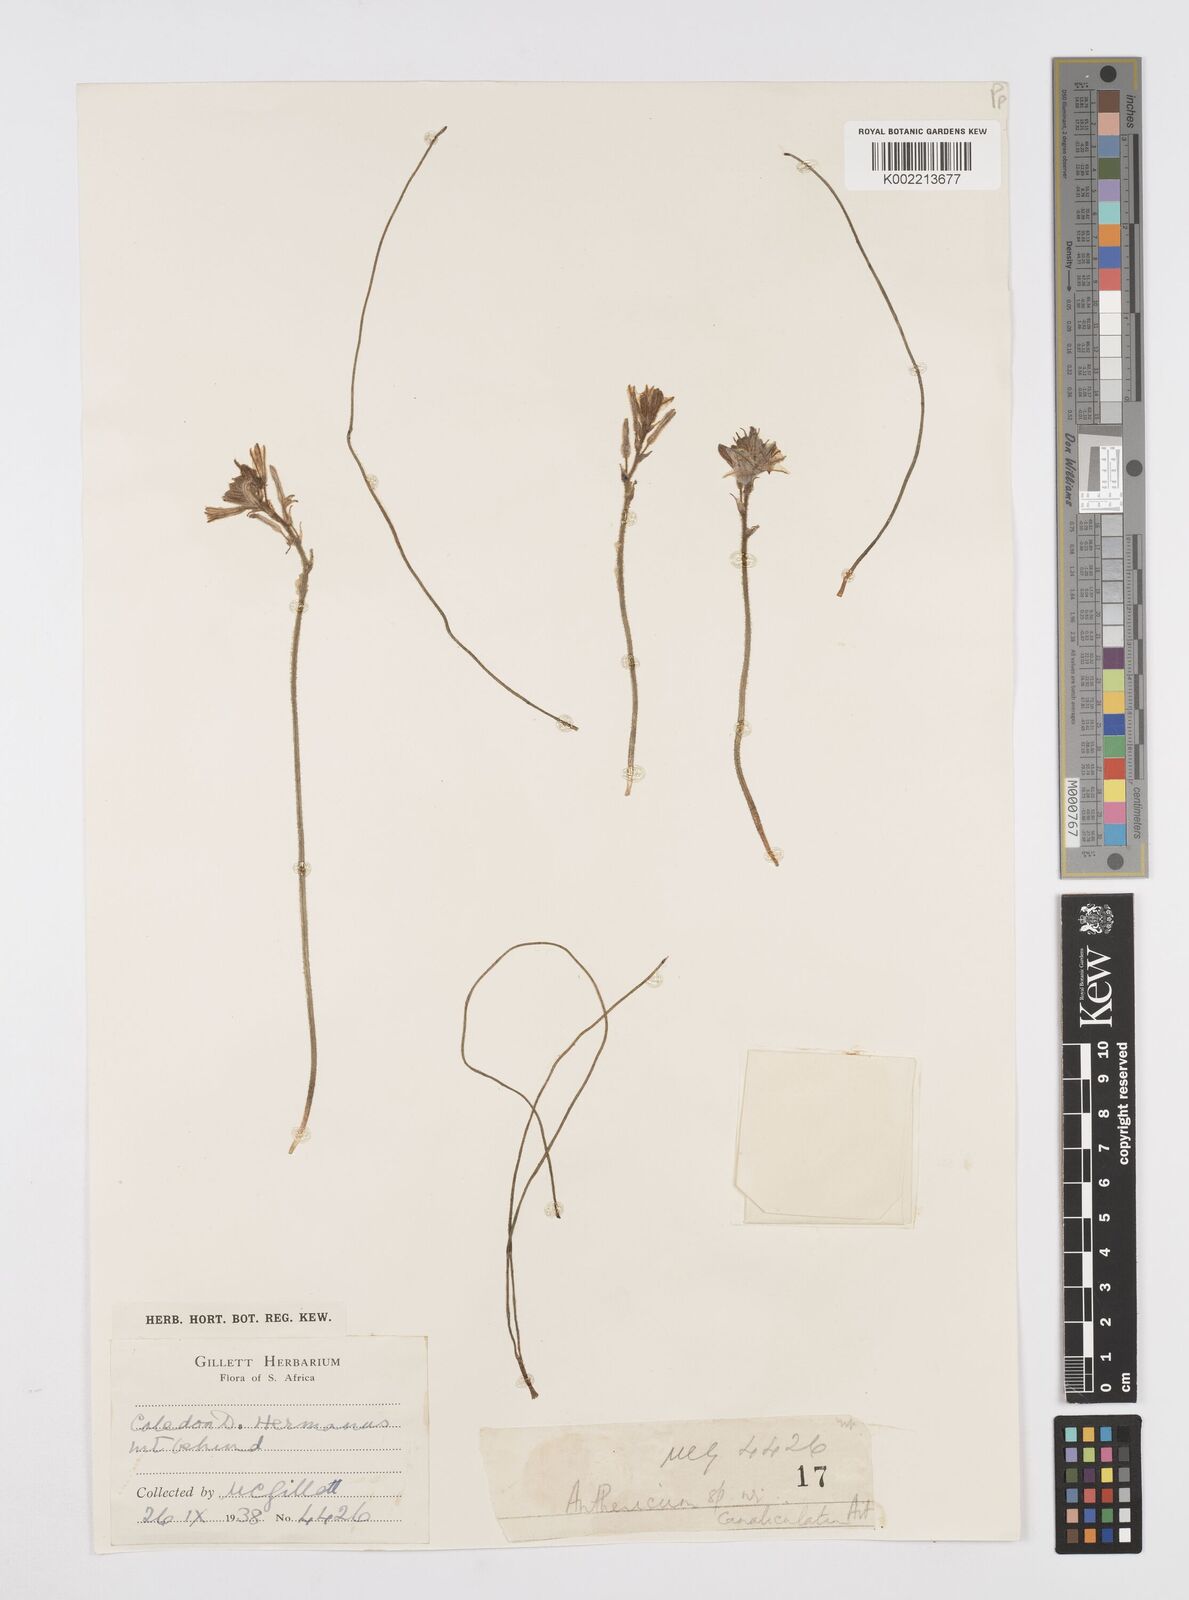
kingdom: Plantae
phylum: Tracheophyta
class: Liliopsida
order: Asparagales
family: Asphodelaceae
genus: Trachyandra
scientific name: Trachyandra hirsutiflora
